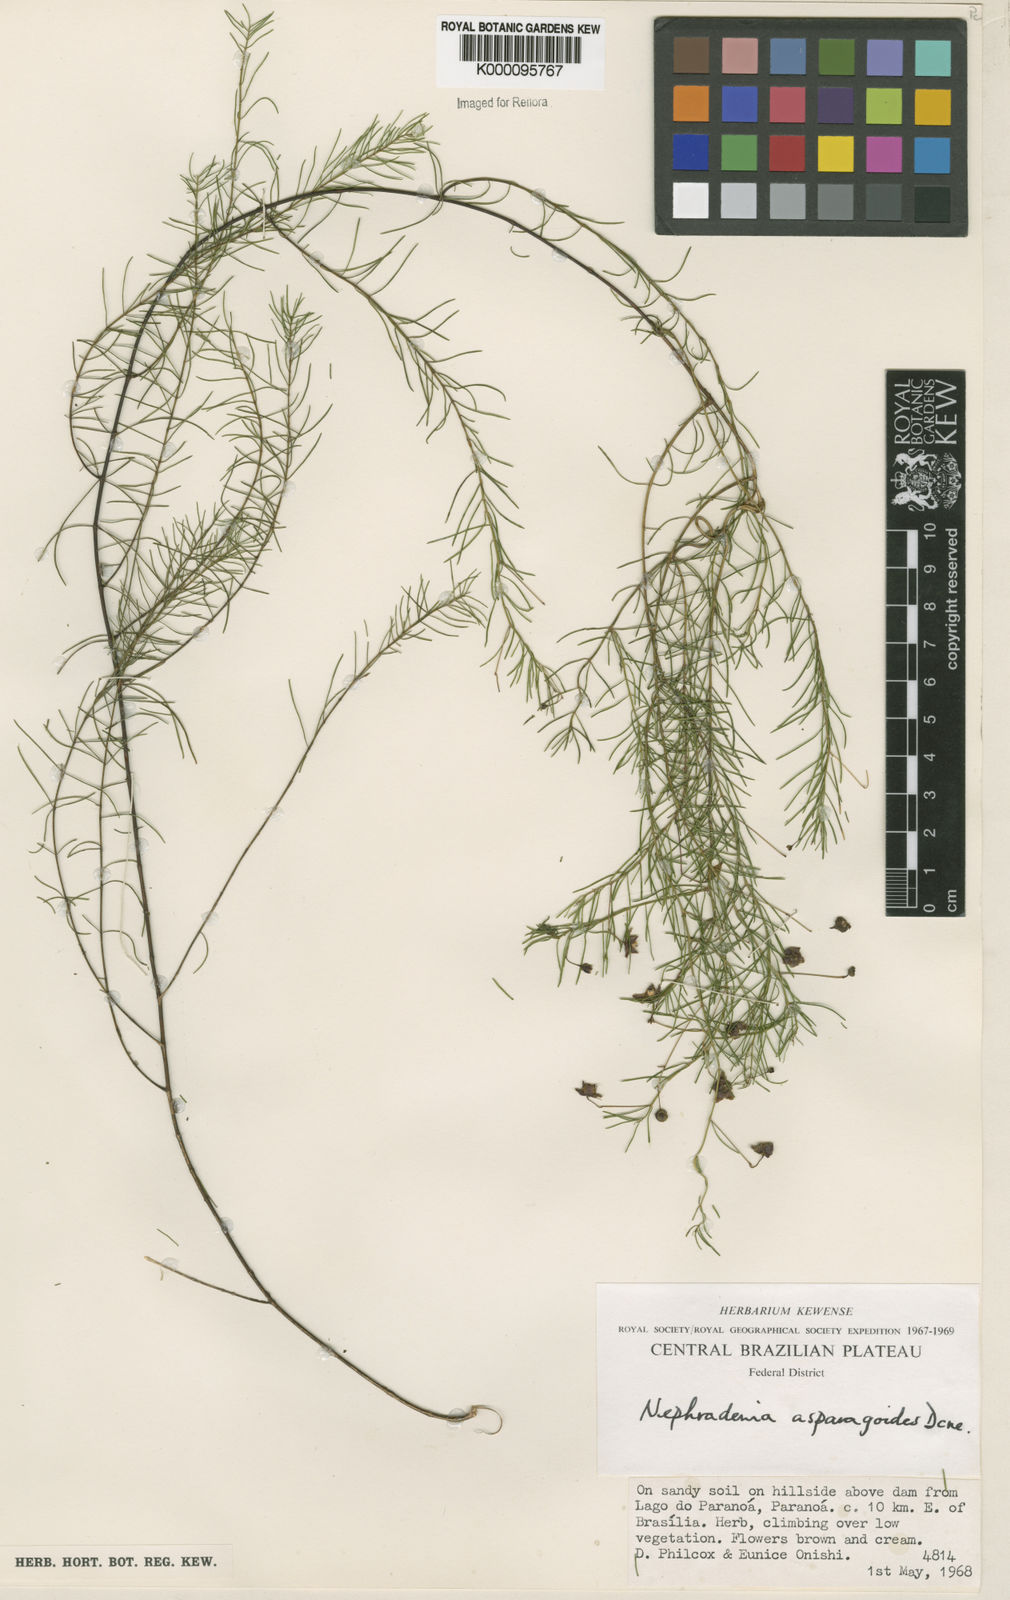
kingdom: Plantae
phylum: Tracheophyta
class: Magnoliopsida
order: Gentianales
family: Apocynaceae
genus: Nephradenia
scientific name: Nephradenia asparagoides
